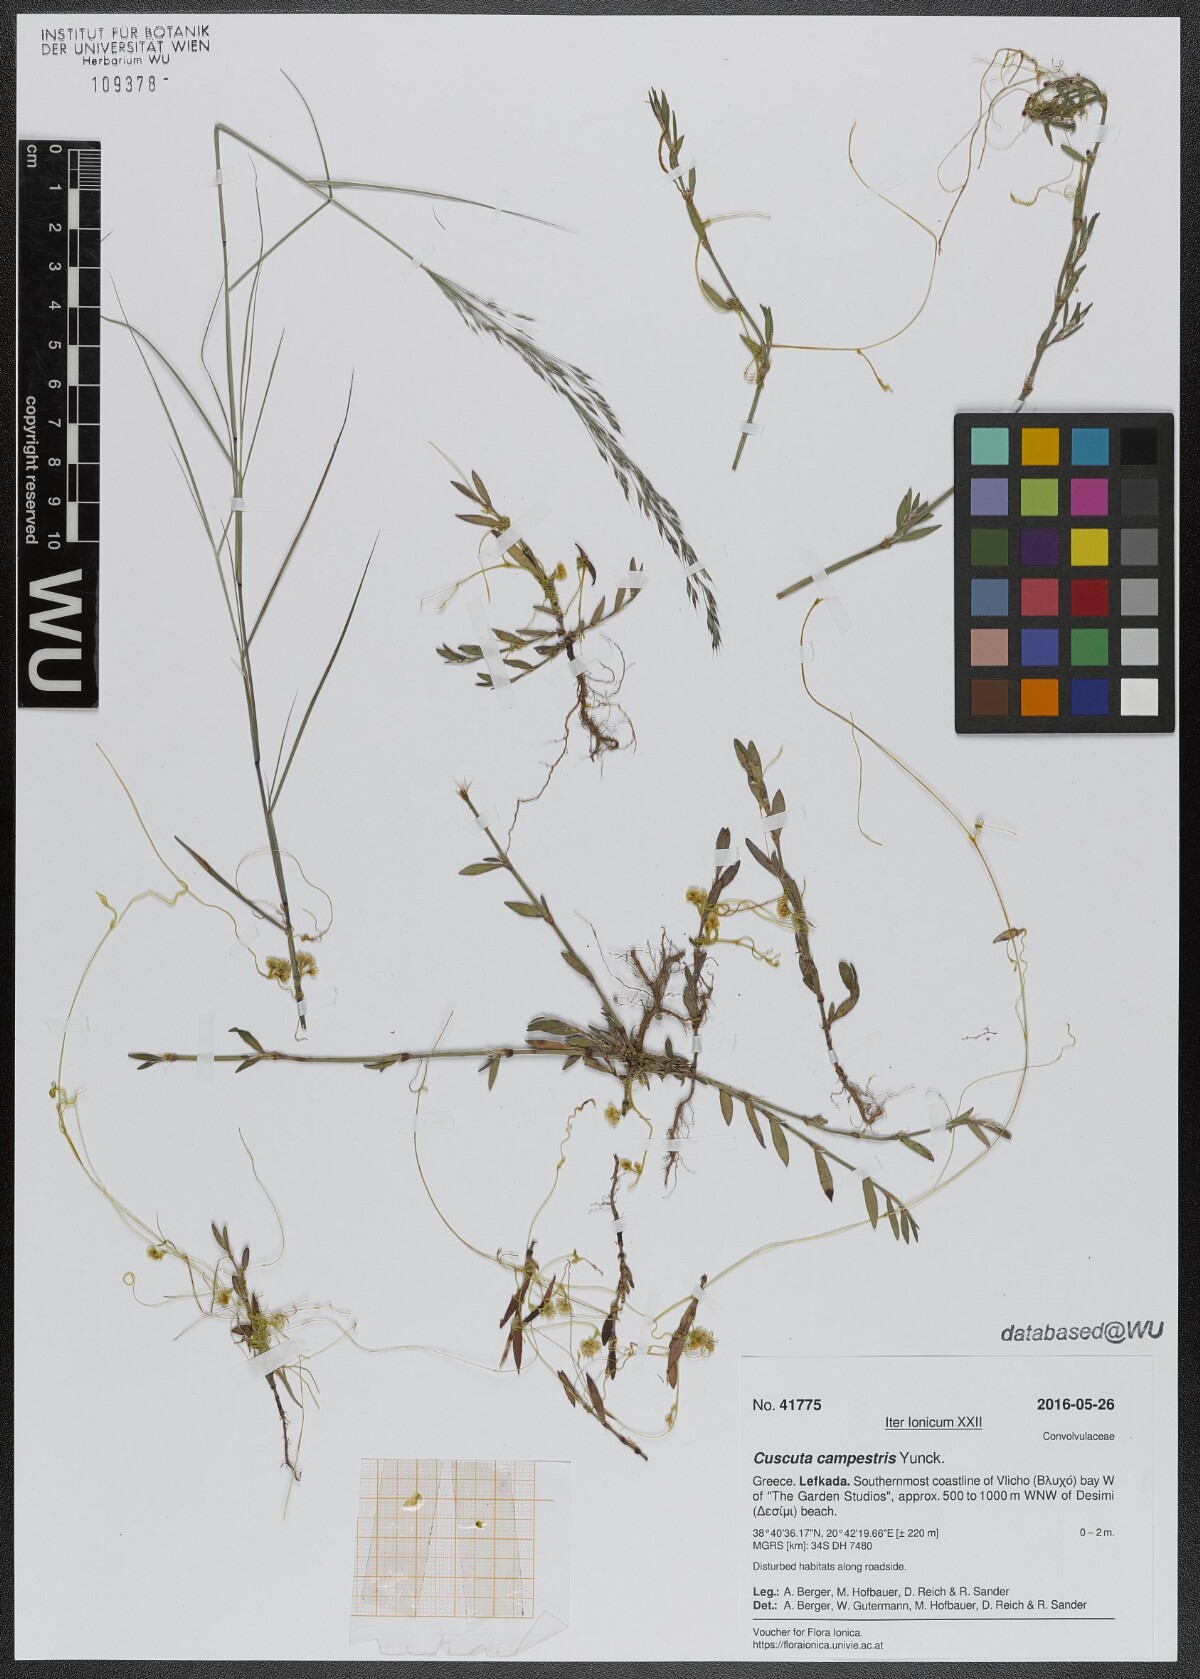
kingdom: Plantae
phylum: Tracheophyta
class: Magnoliopsida
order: Solanales
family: Convolvulaceae
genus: Cuscuta
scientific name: Cuscuta campestris
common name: Yellow dodder
